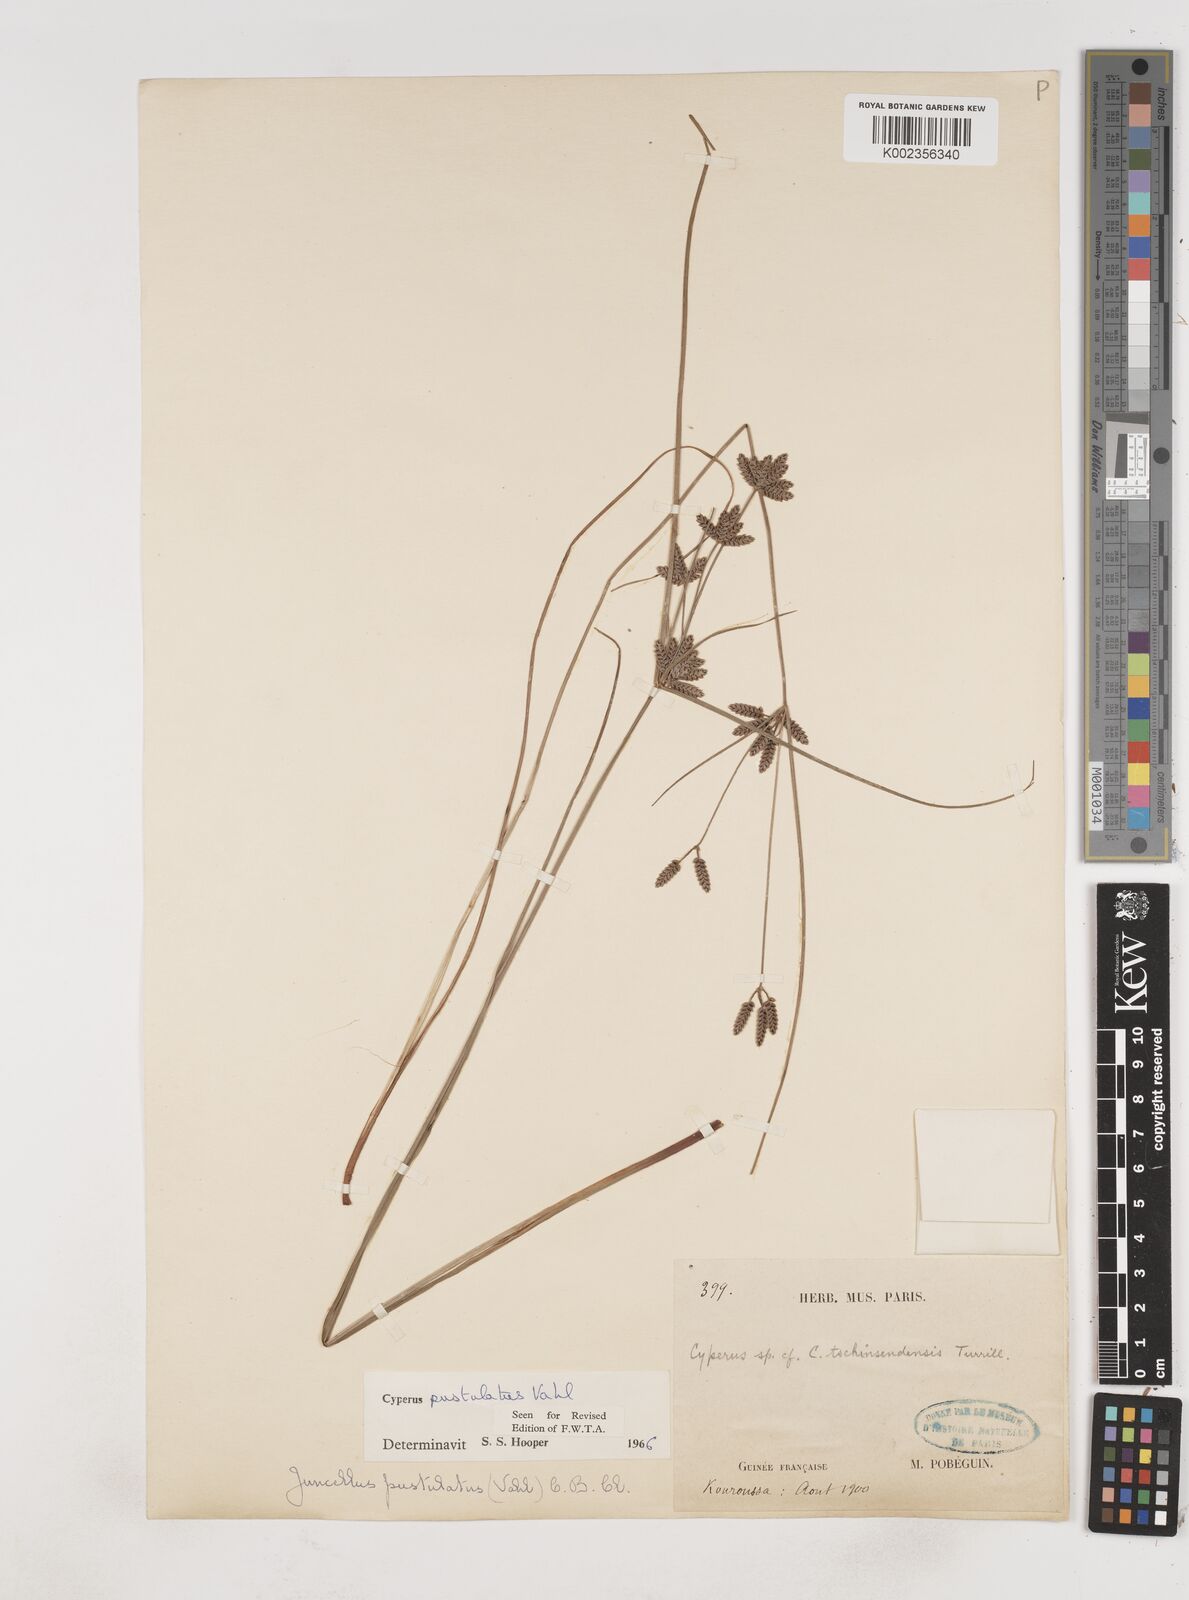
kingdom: Plantae
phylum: Tracheophyta
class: Liliopsida
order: Poales
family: Cyperaceae
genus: Cyperus
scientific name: Cyperus pustulatus
